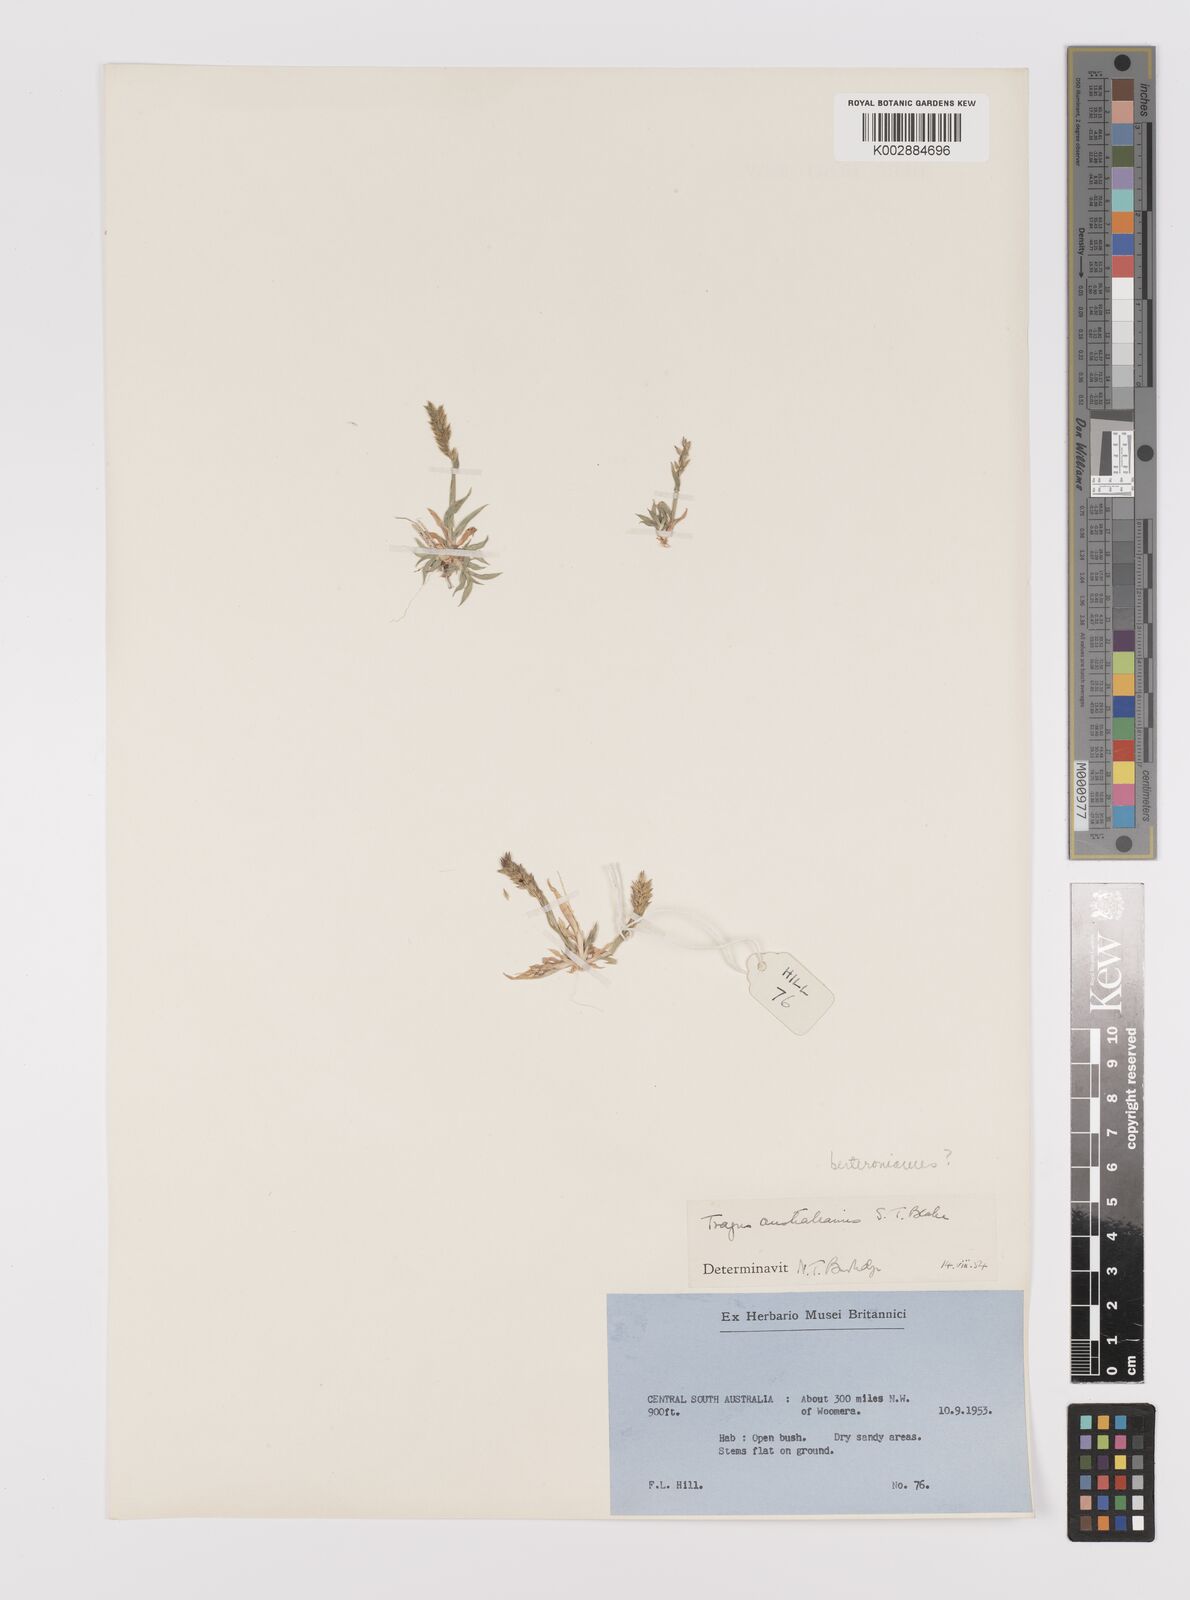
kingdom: Plantae
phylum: Tracheophyta
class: Liliopsida
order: Poales
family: Poaceae
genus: Tragus
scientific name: Tragus australianus
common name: Australian bur-grass
